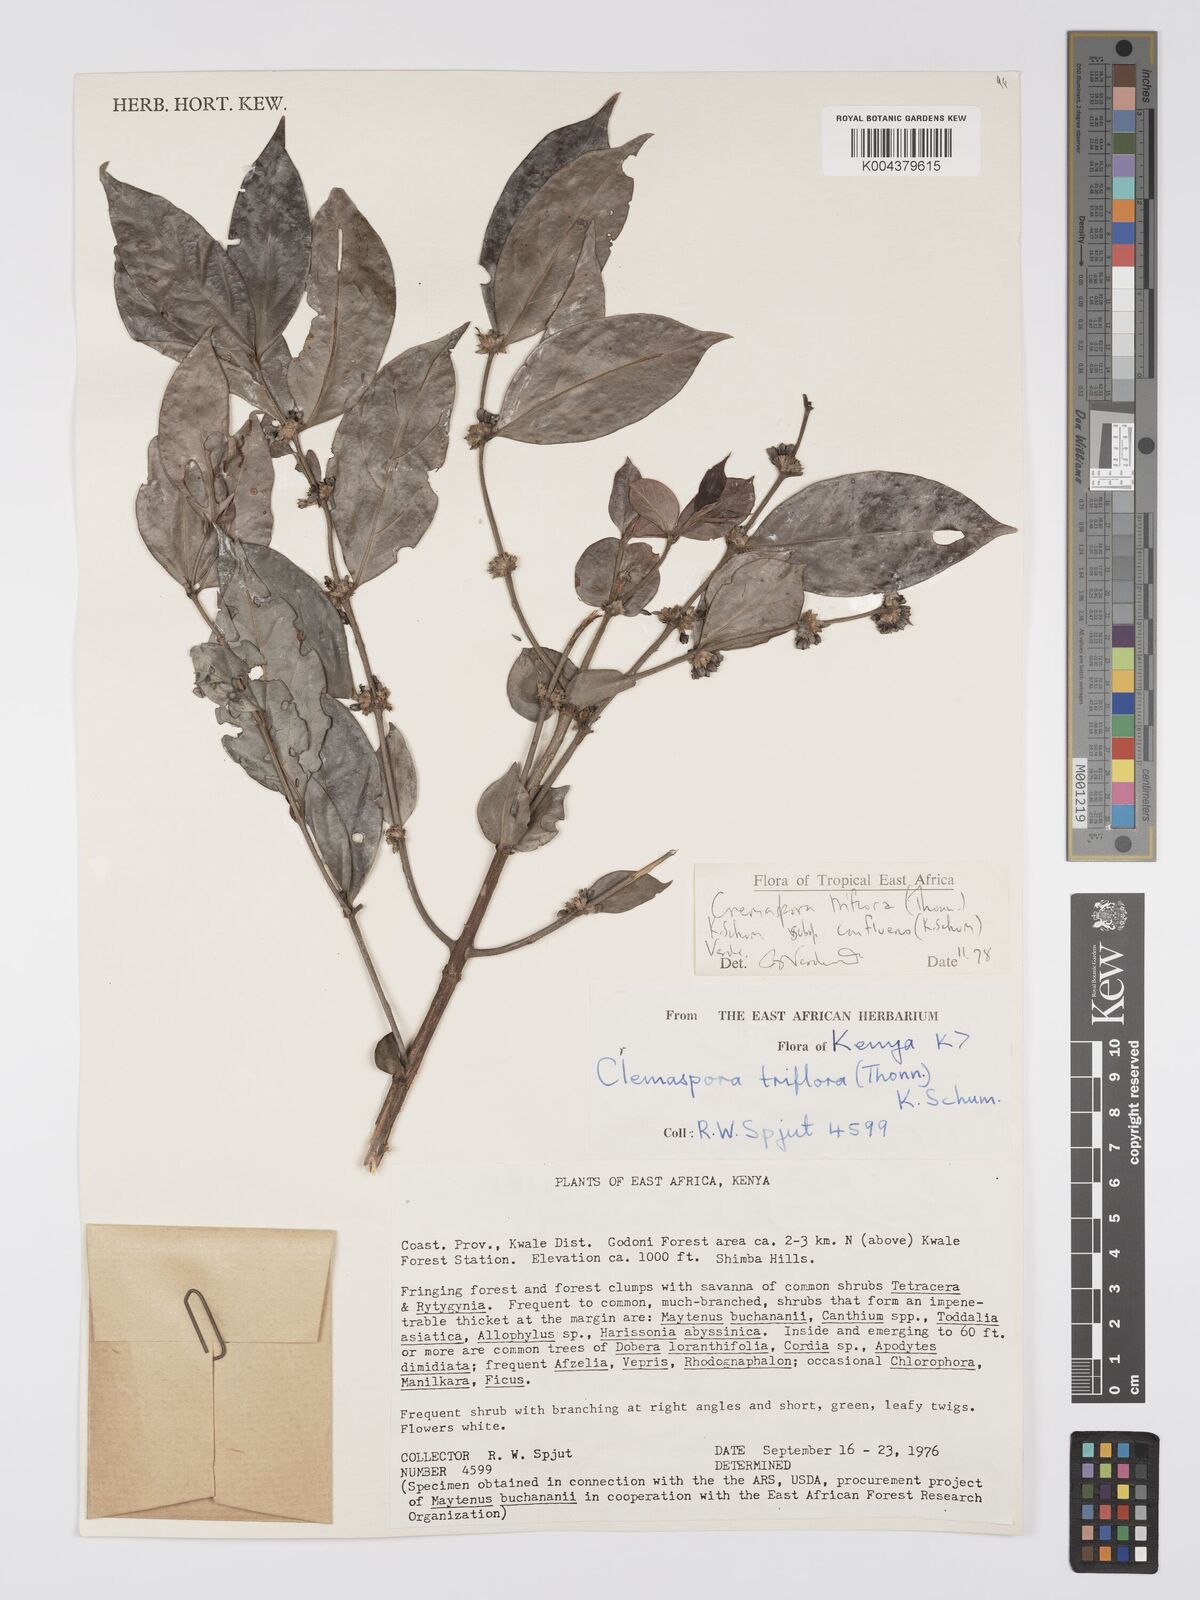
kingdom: Plantae
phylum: Tracheophyta
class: Magnoliopsida
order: Gentianales
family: Rubiaceae
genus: Cremaspora
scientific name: Cremaspora triflora
